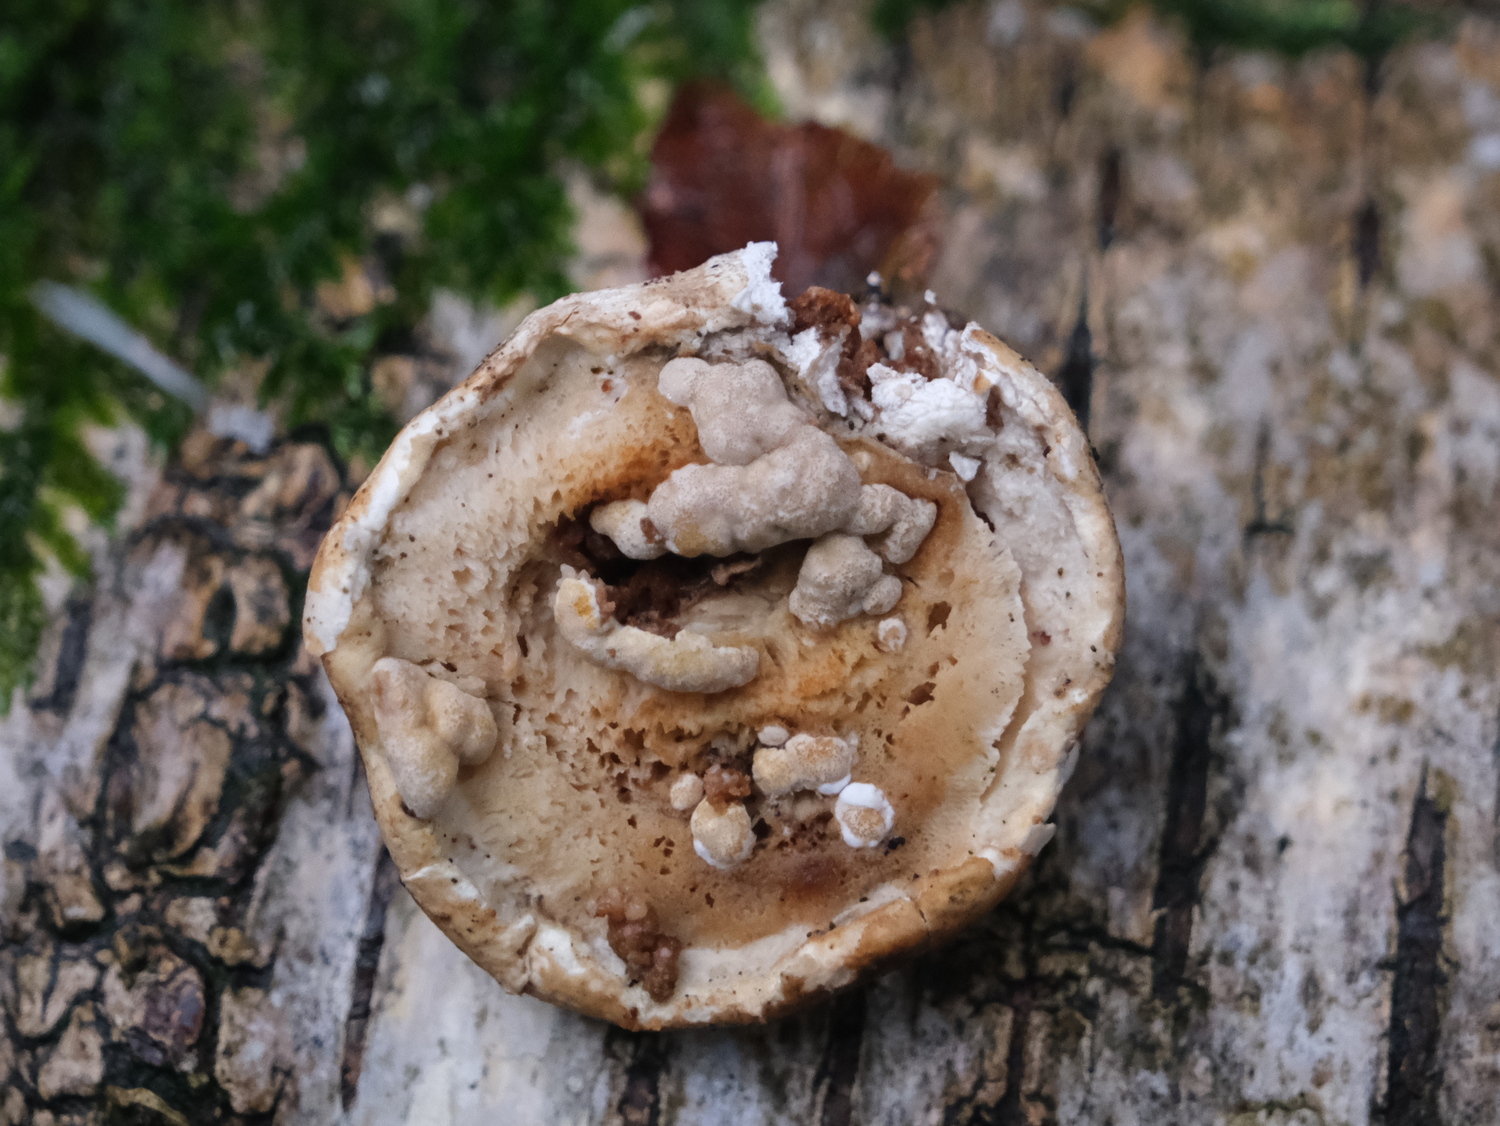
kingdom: Fungi
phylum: Ascomycota
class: Sordariomycetes
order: Hypocreales
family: Hypocreaceae
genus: Trichoderma
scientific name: Trichoderma pulvinatum
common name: snyltende kødkerne
